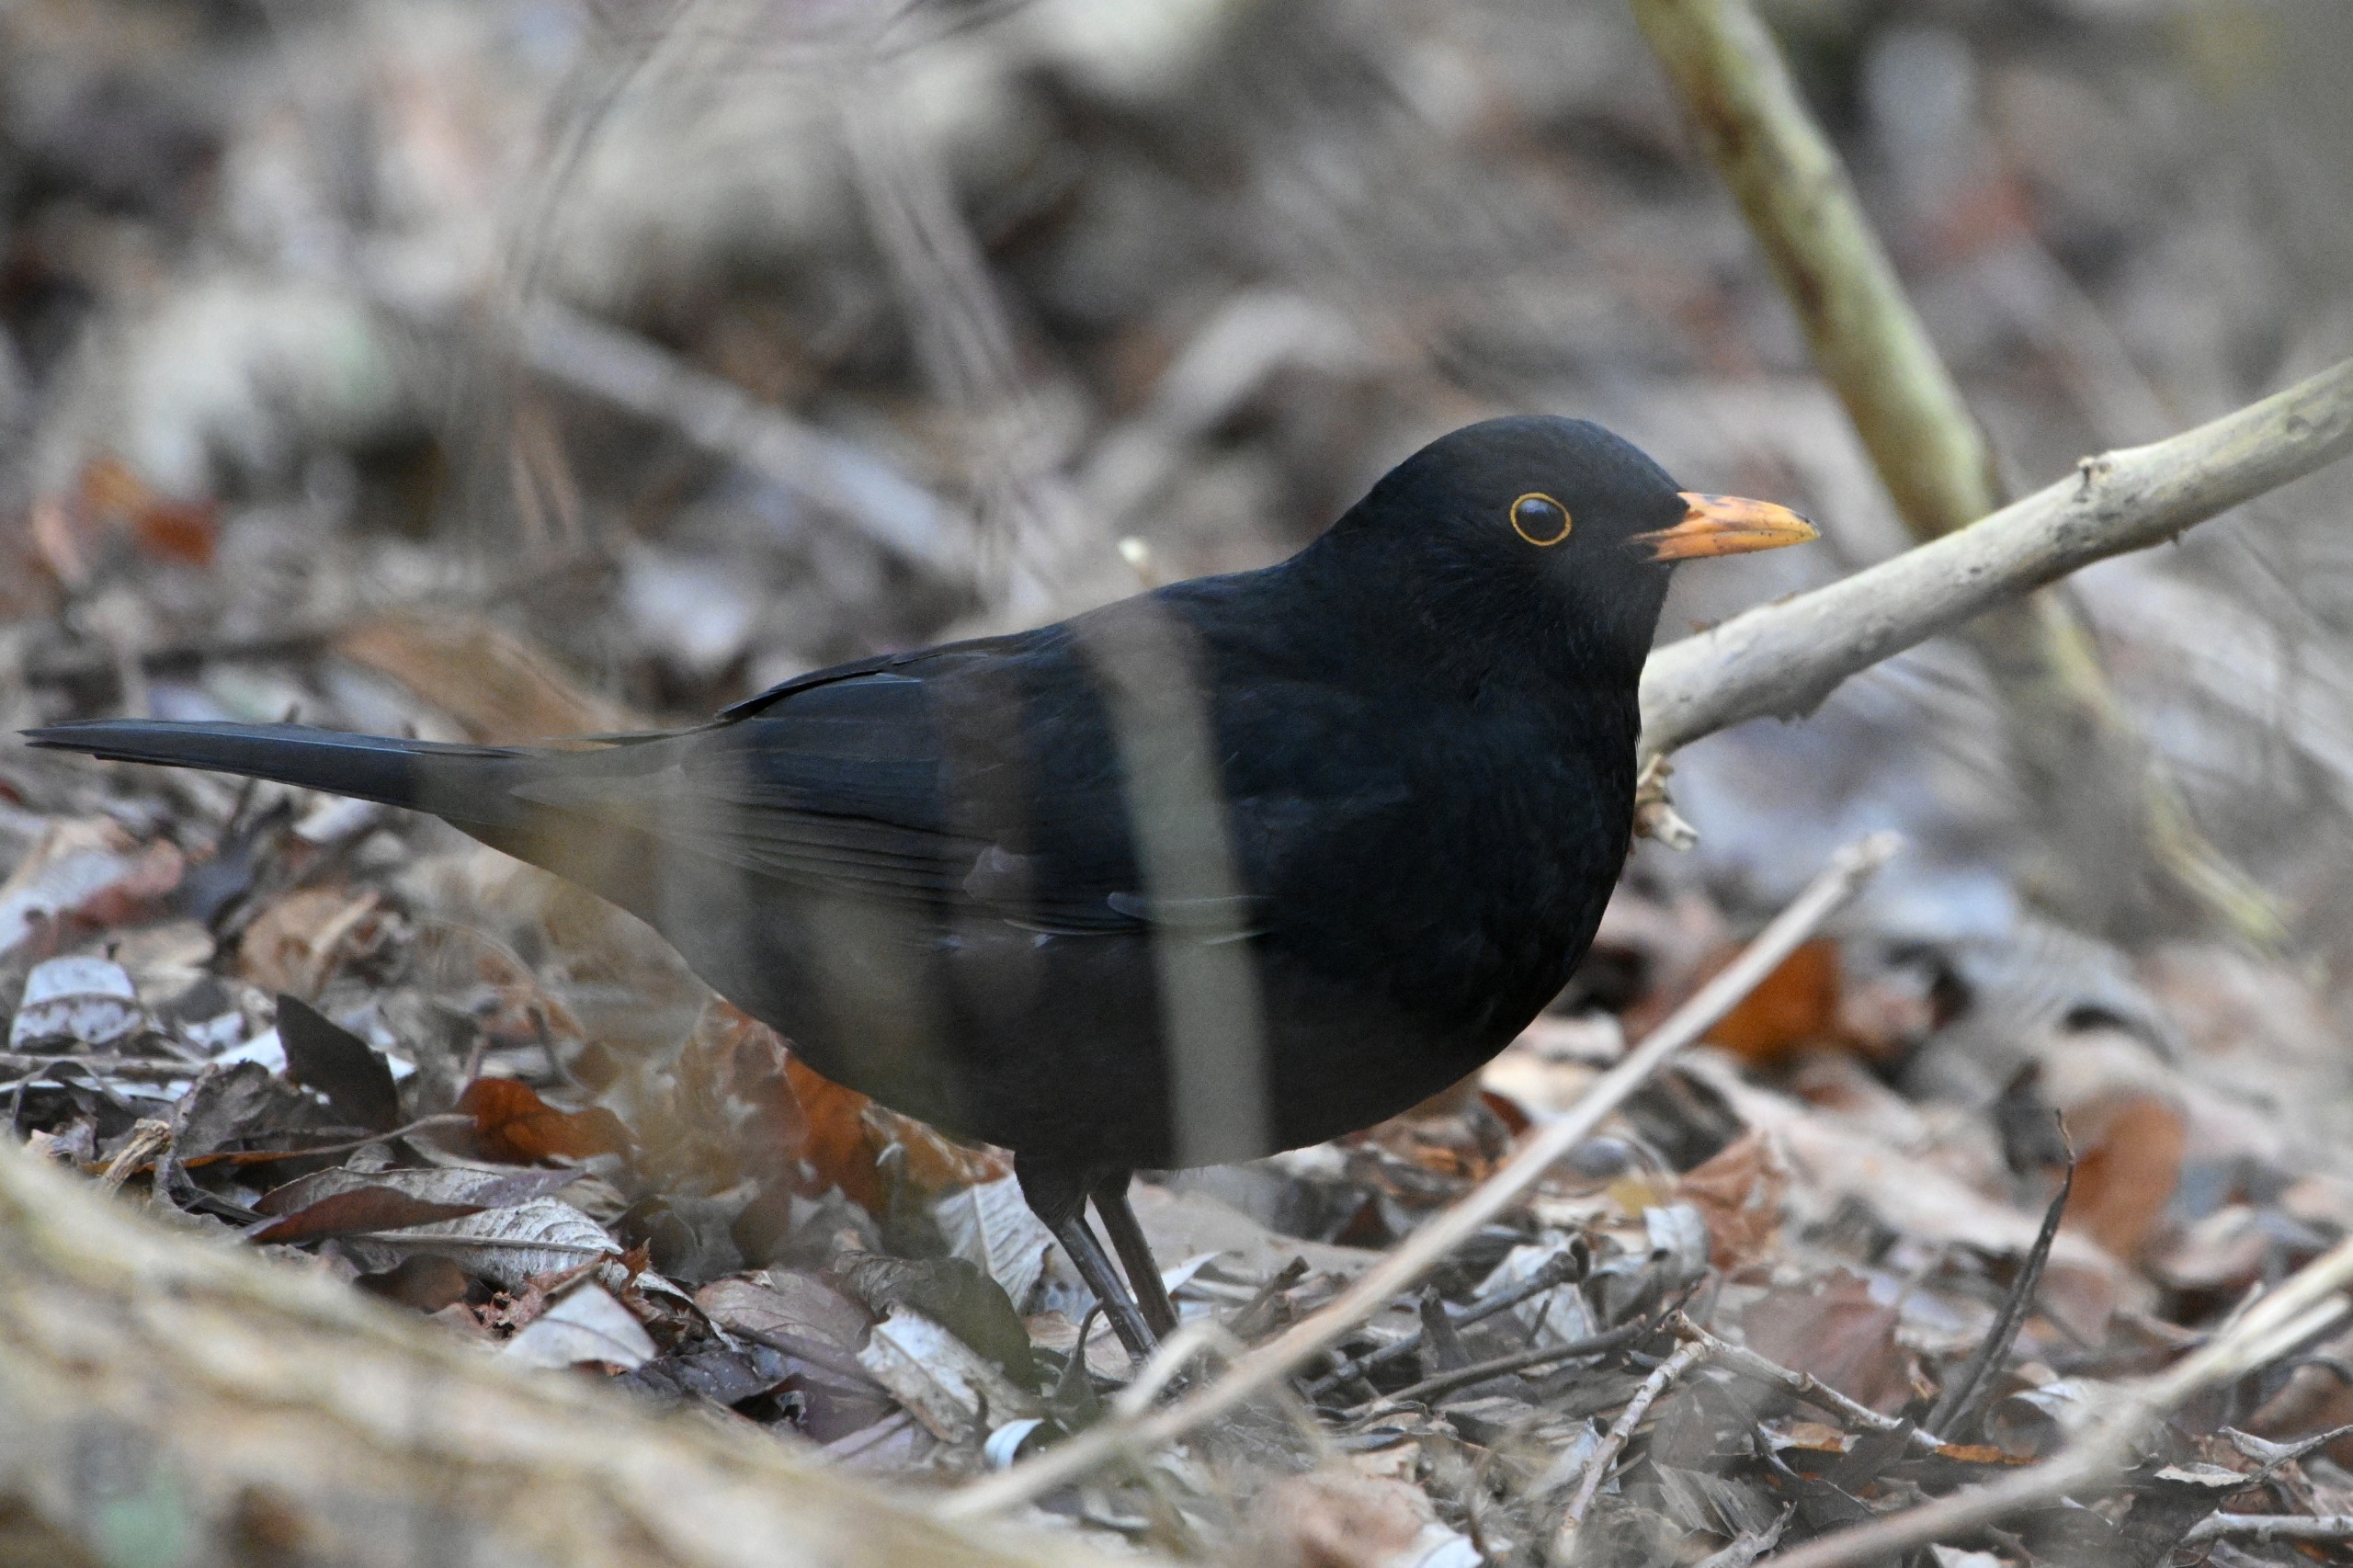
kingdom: Animalia
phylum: Chordata
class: Aves
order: Passeriformes
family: Turdidae
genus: Turdus
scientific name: Turdus merula
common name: Solsort
